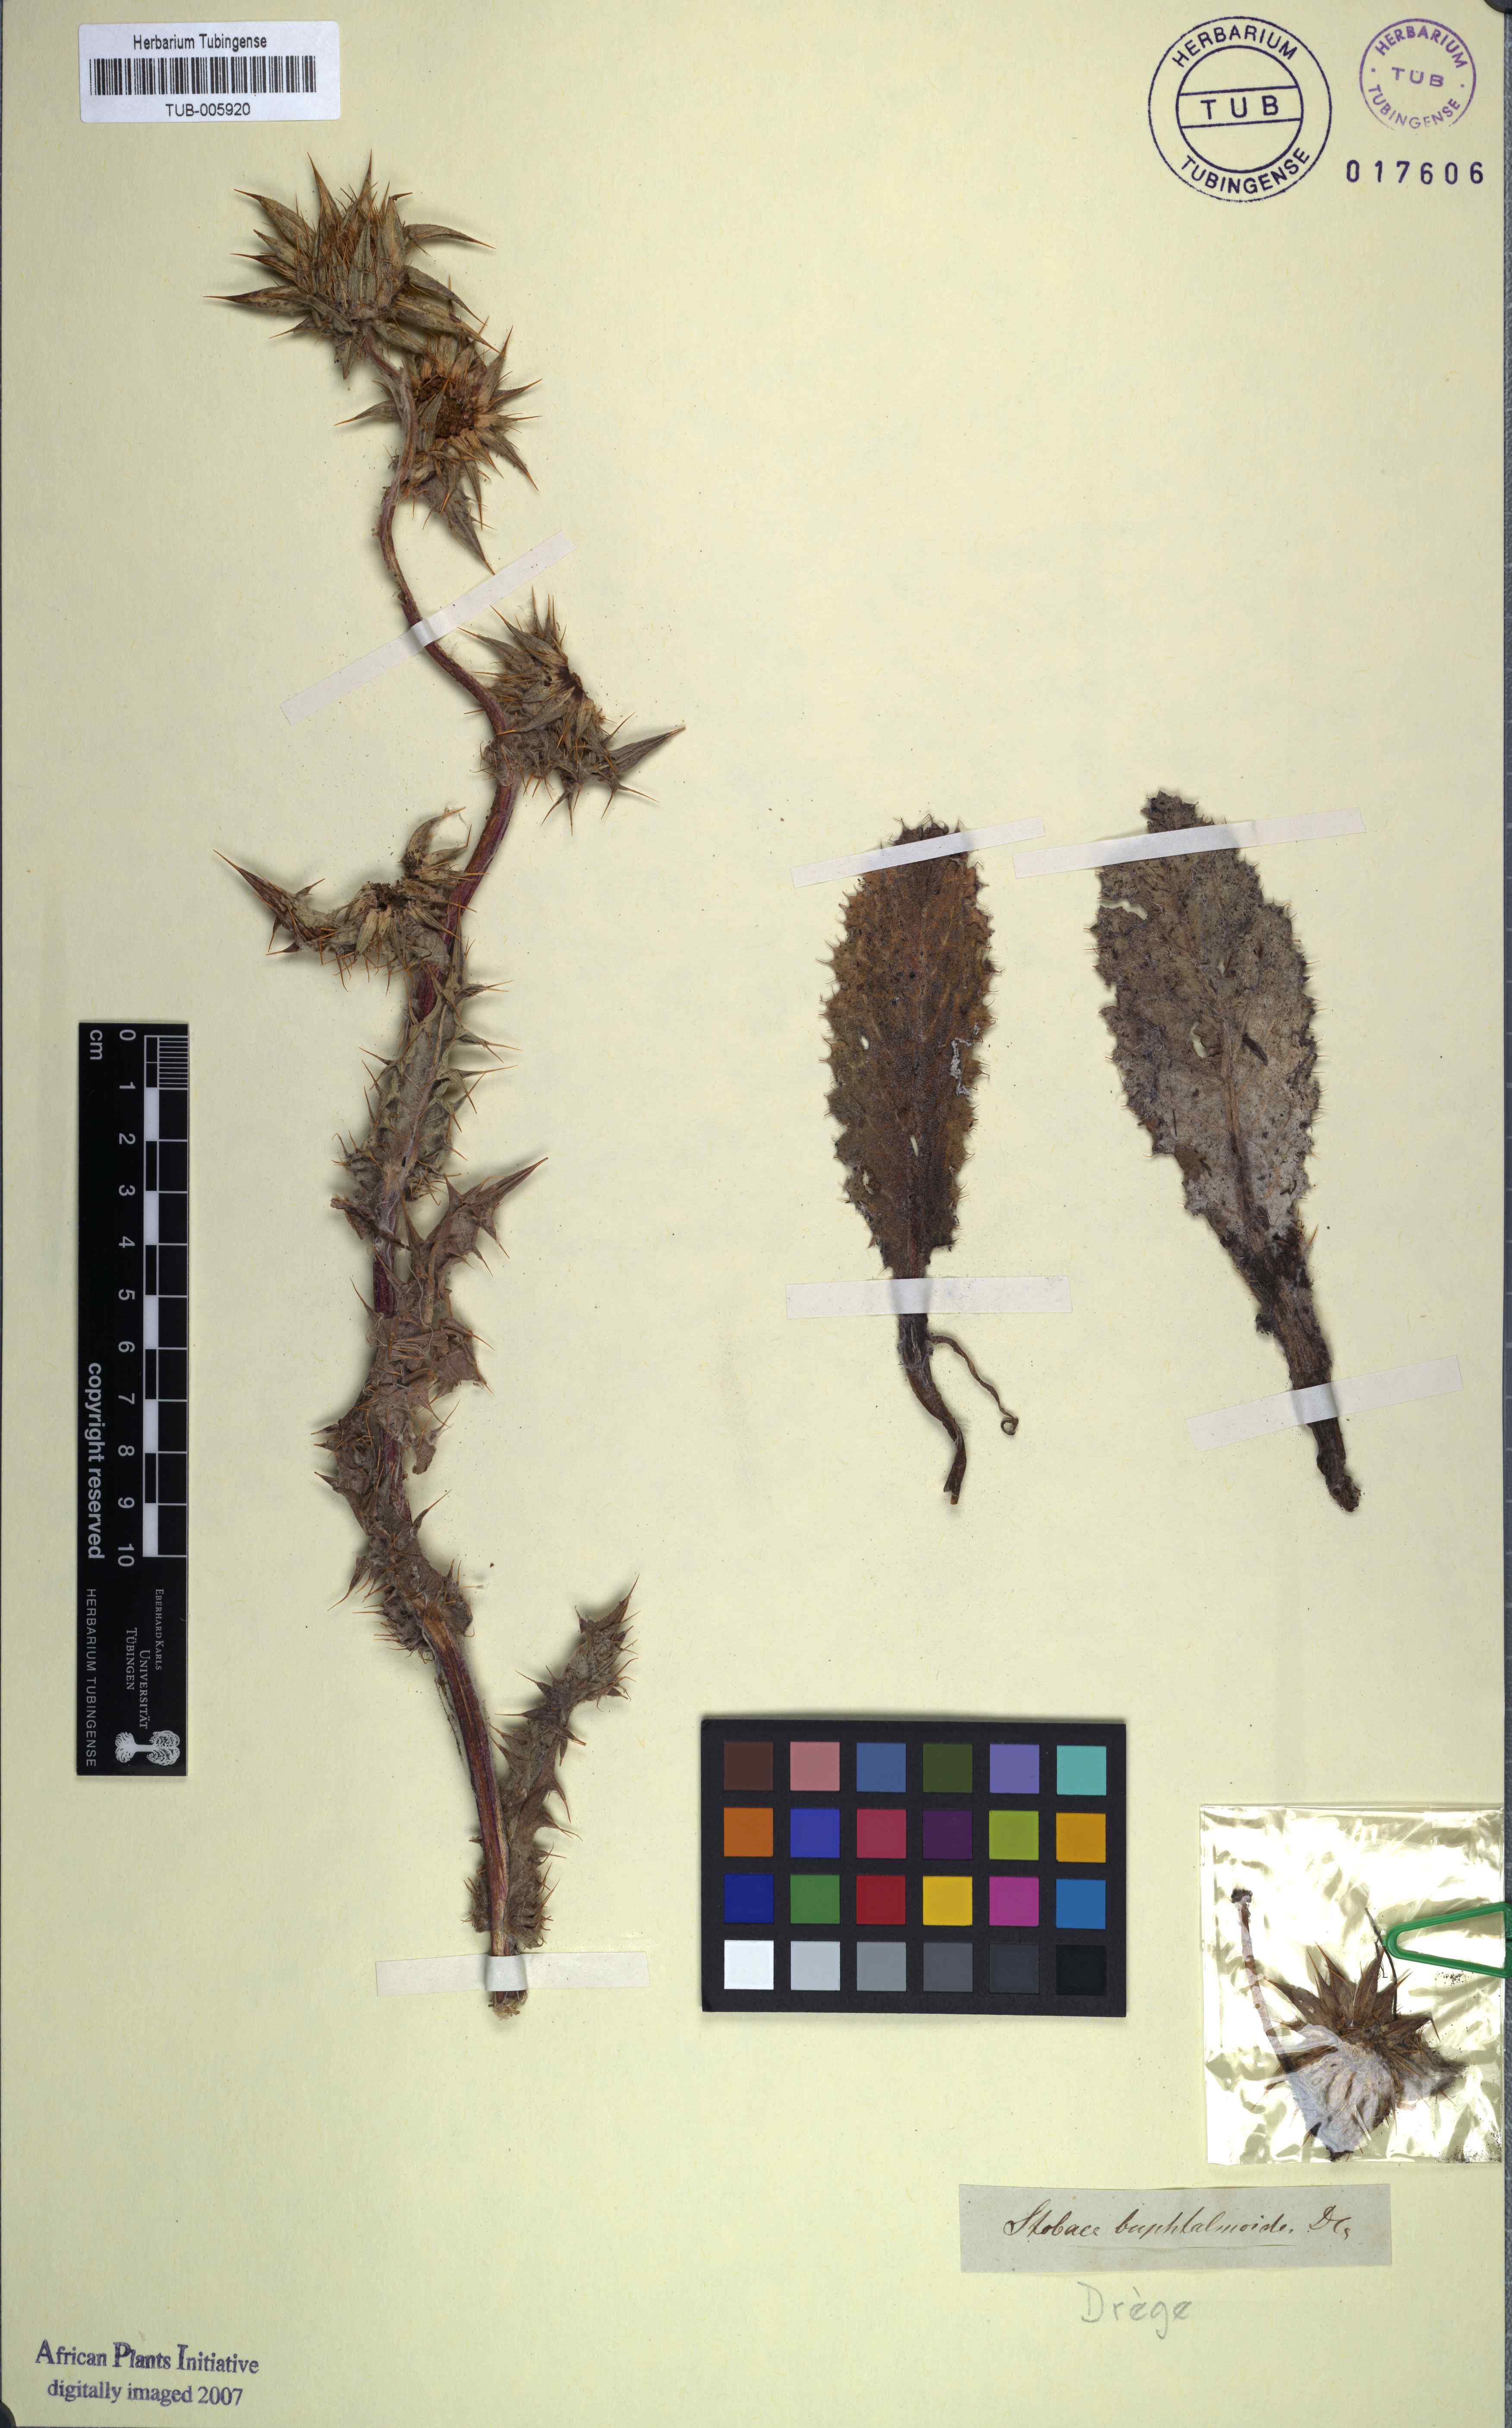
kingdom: Plantae
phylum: Tracheophyta
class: Magnoliopsida
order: Asterales
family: Asteraceae
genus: Berkheya
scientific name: Berkheya buphthalmoides
